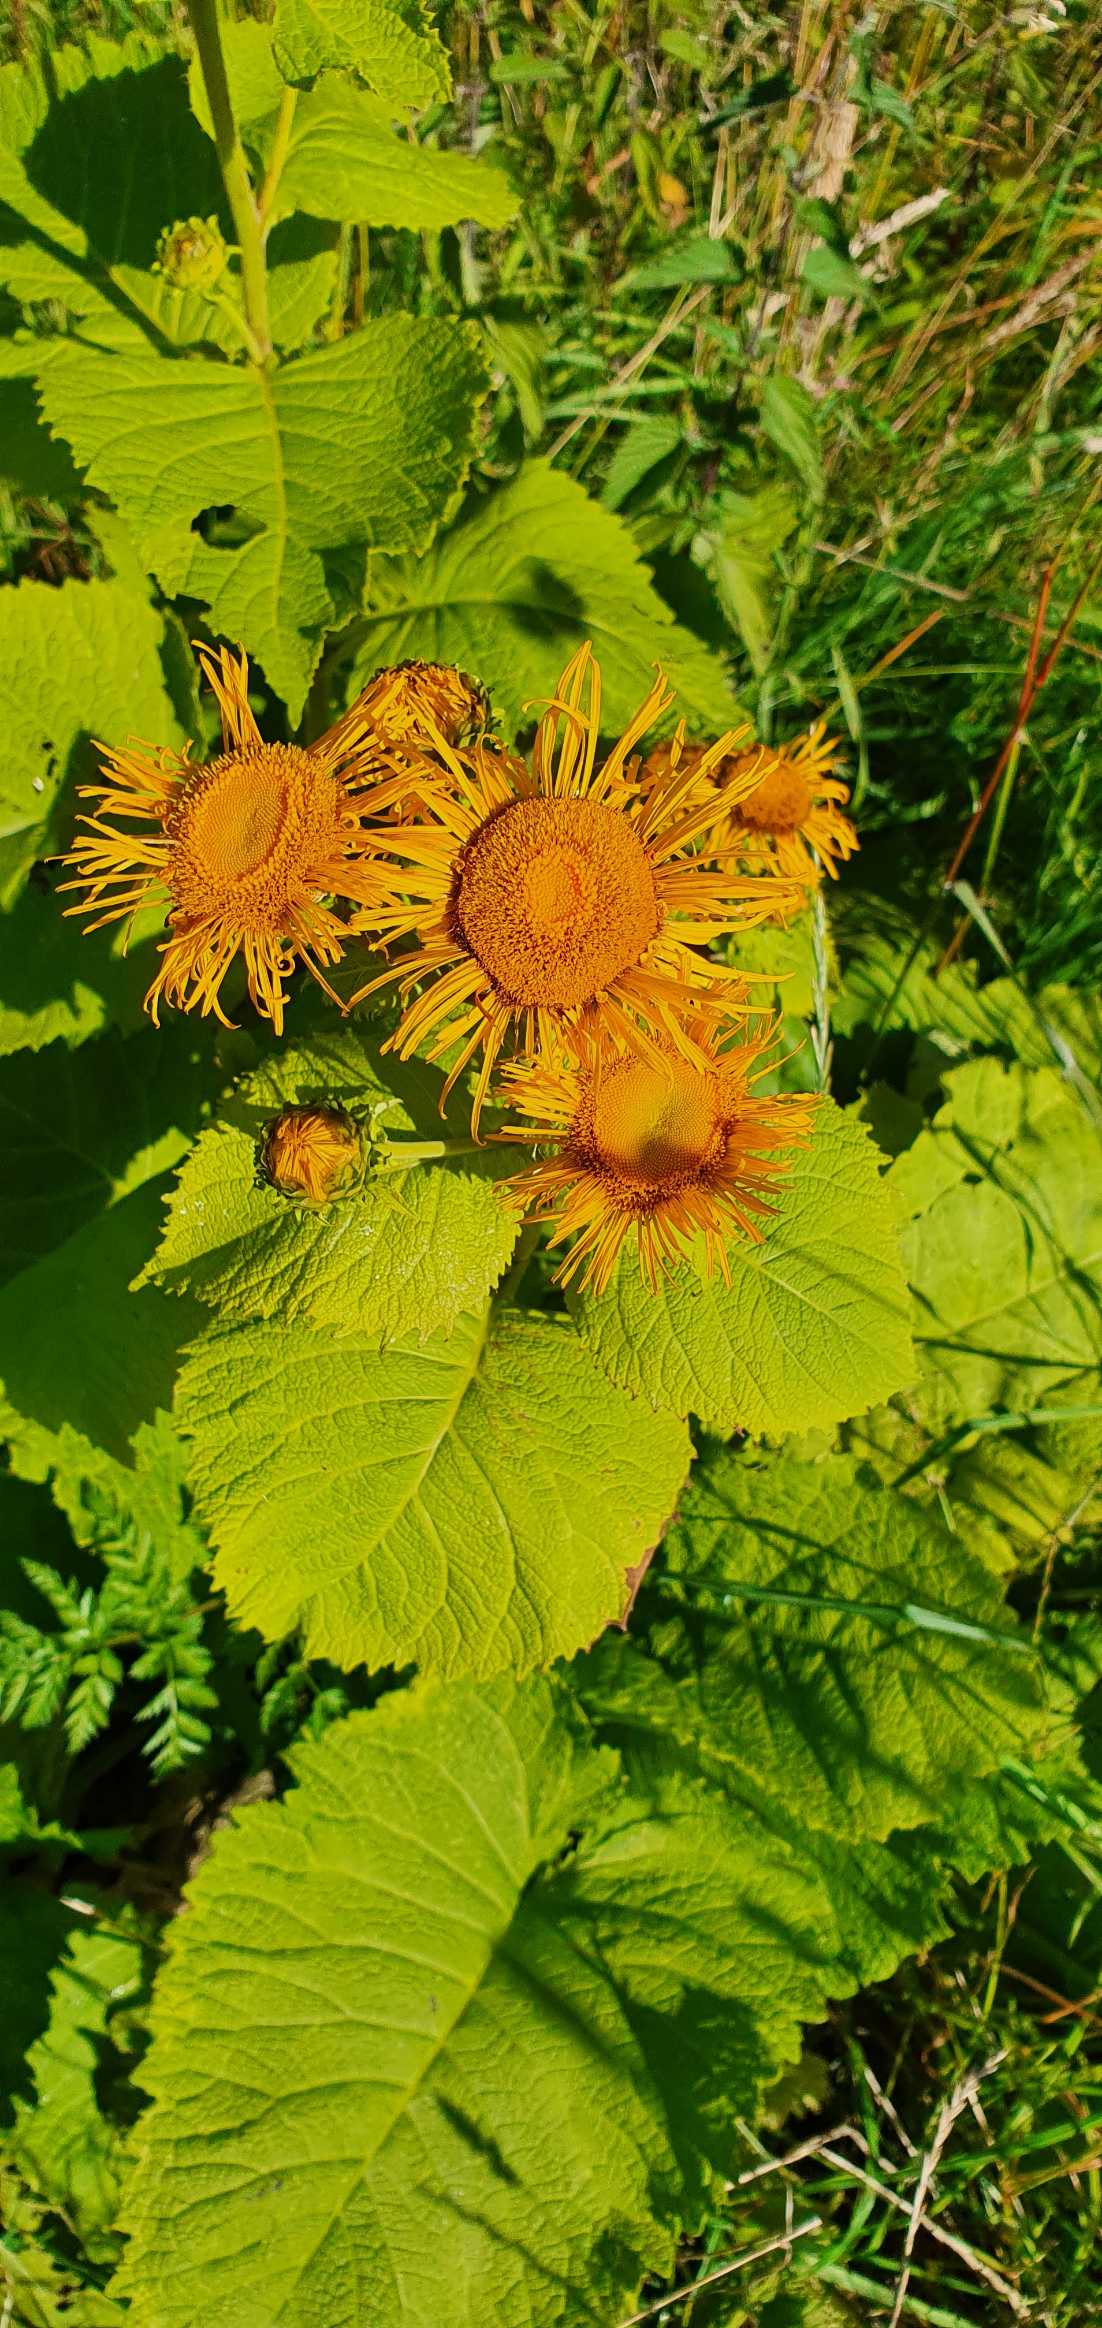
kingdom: Plantae
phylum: Tracheophyta
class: Magnoliopsida
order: Asterales
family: Asteraceae
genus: Telekia
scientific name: Telekia speciosa
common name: Tusindstråle
